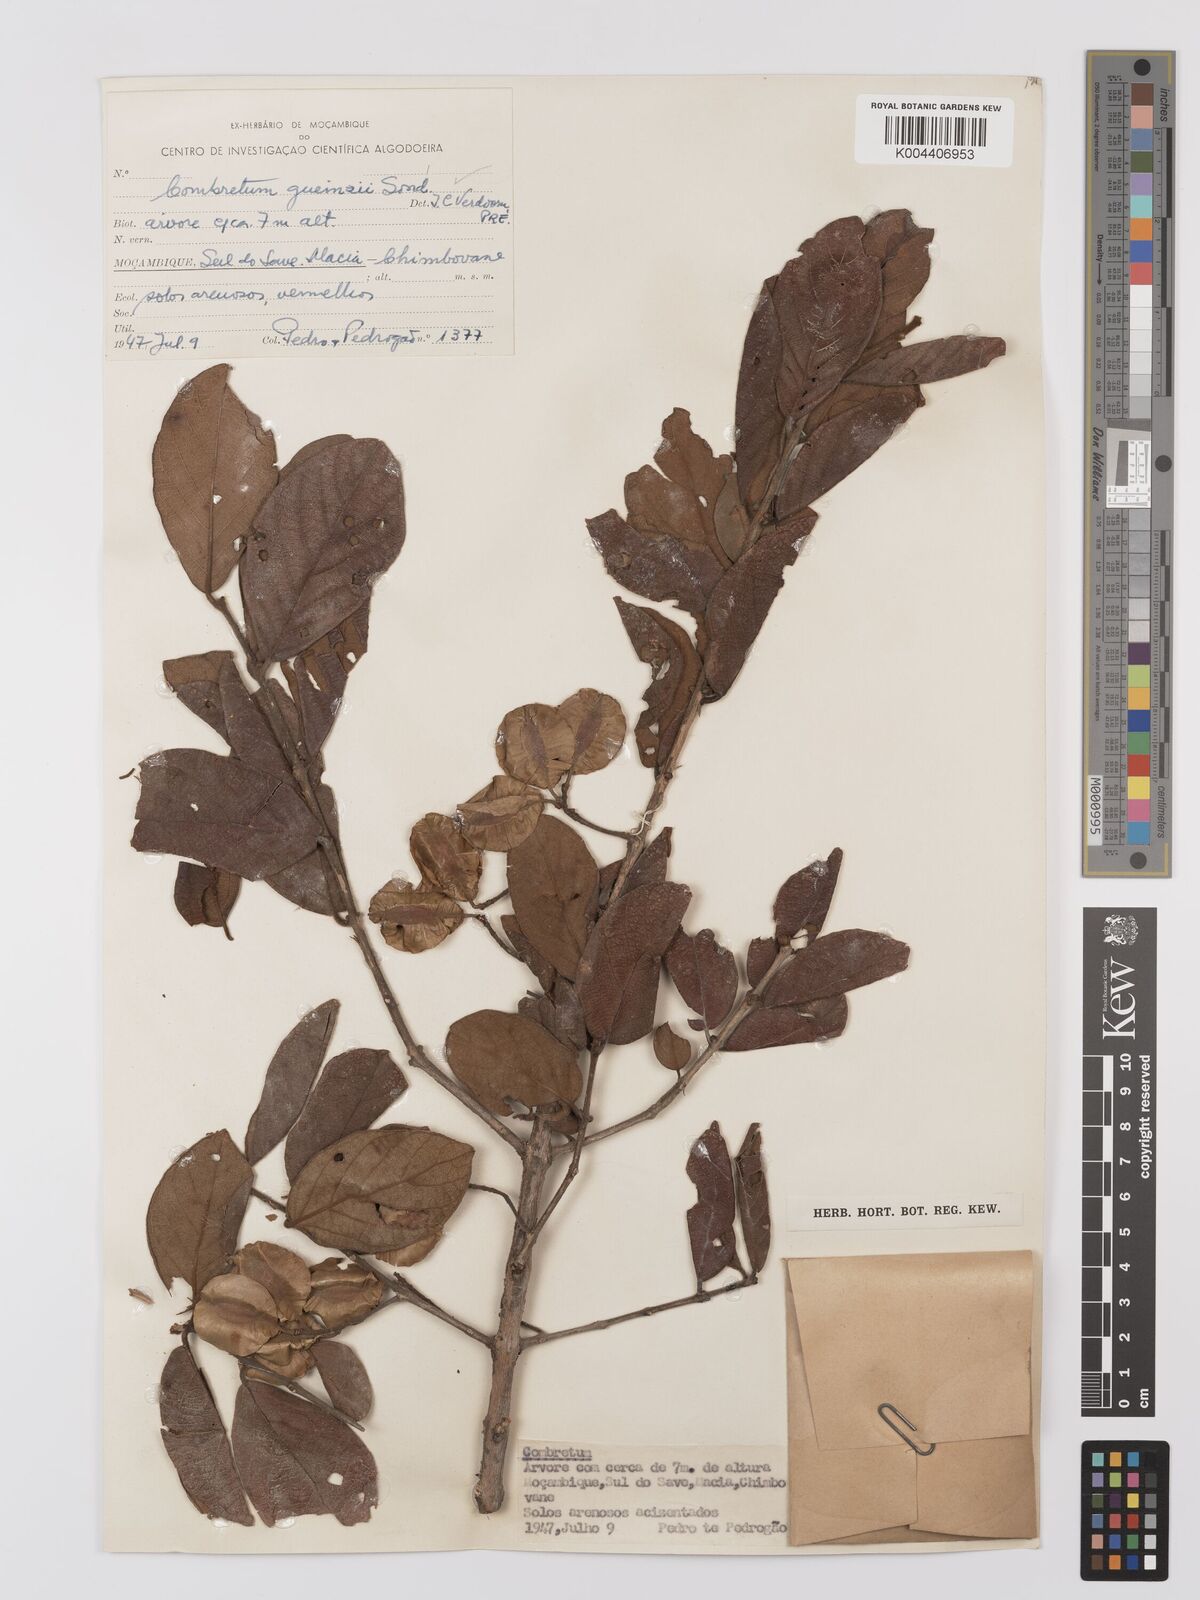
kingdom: Plantae
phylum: Tracheophyta
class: Magnoliopsida
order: Myrtales
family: Combretaceae
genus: Combretum
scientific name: Combretum
